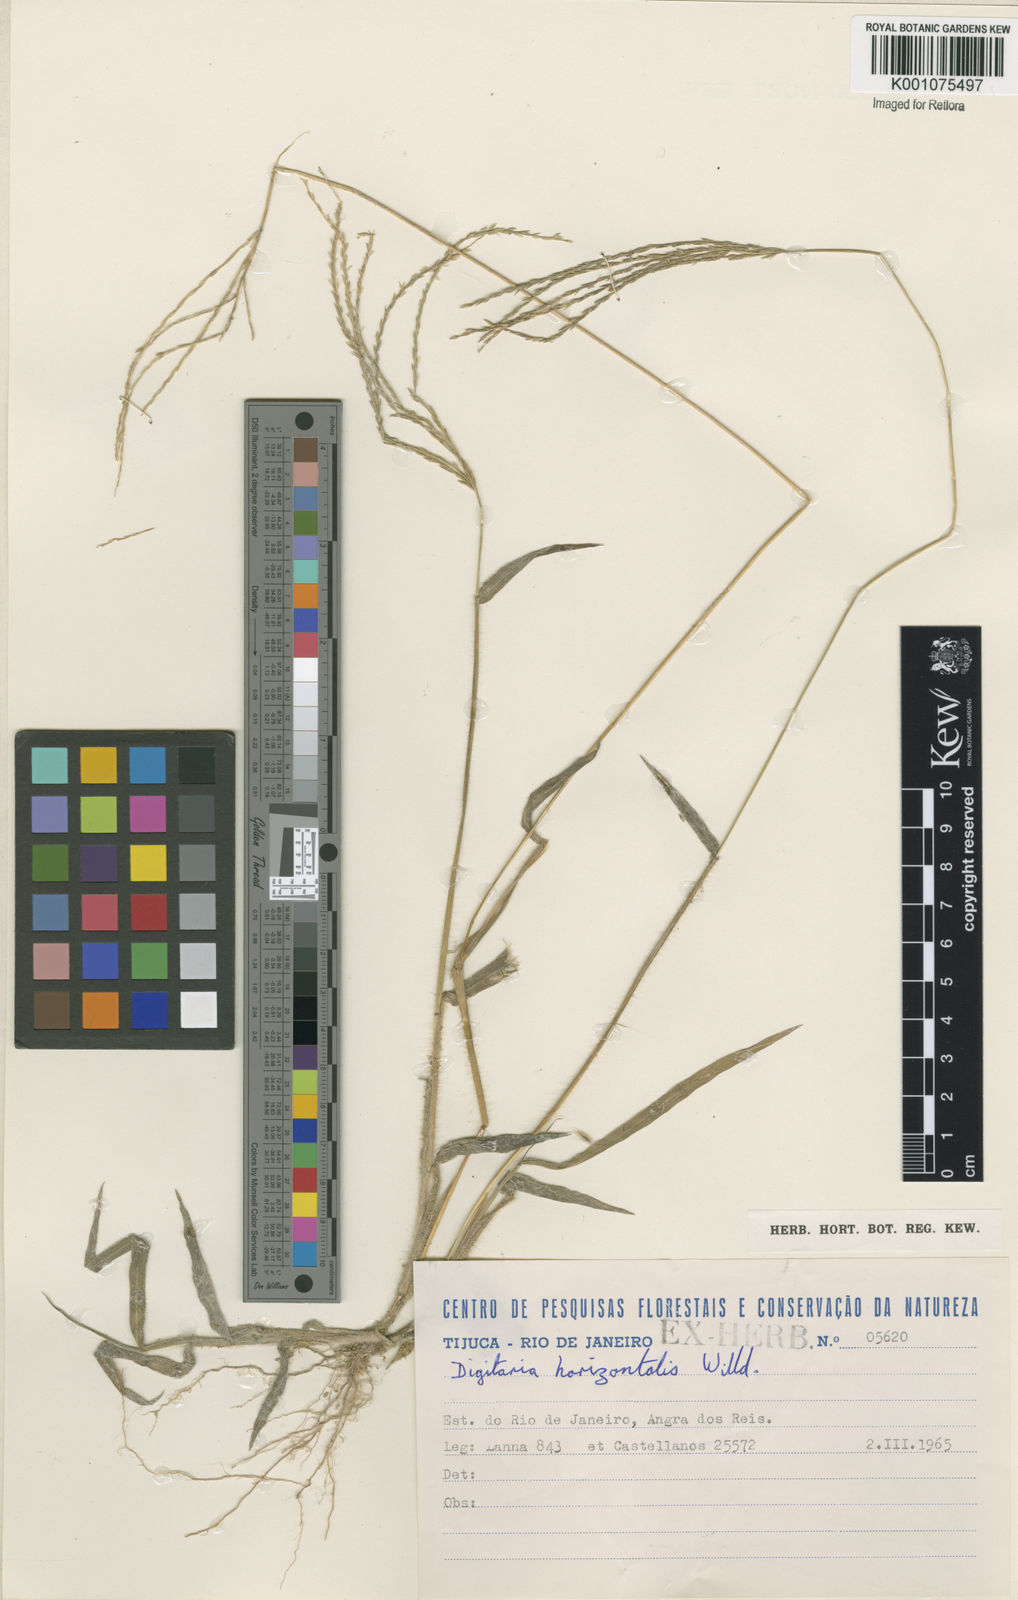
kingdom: Plantae
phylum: Tracheophyta
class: Liliopsida
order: Poales
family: Poaceae
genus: Digitaria
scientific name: Digitaria horizontalis
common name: Jamaican crabgrass
